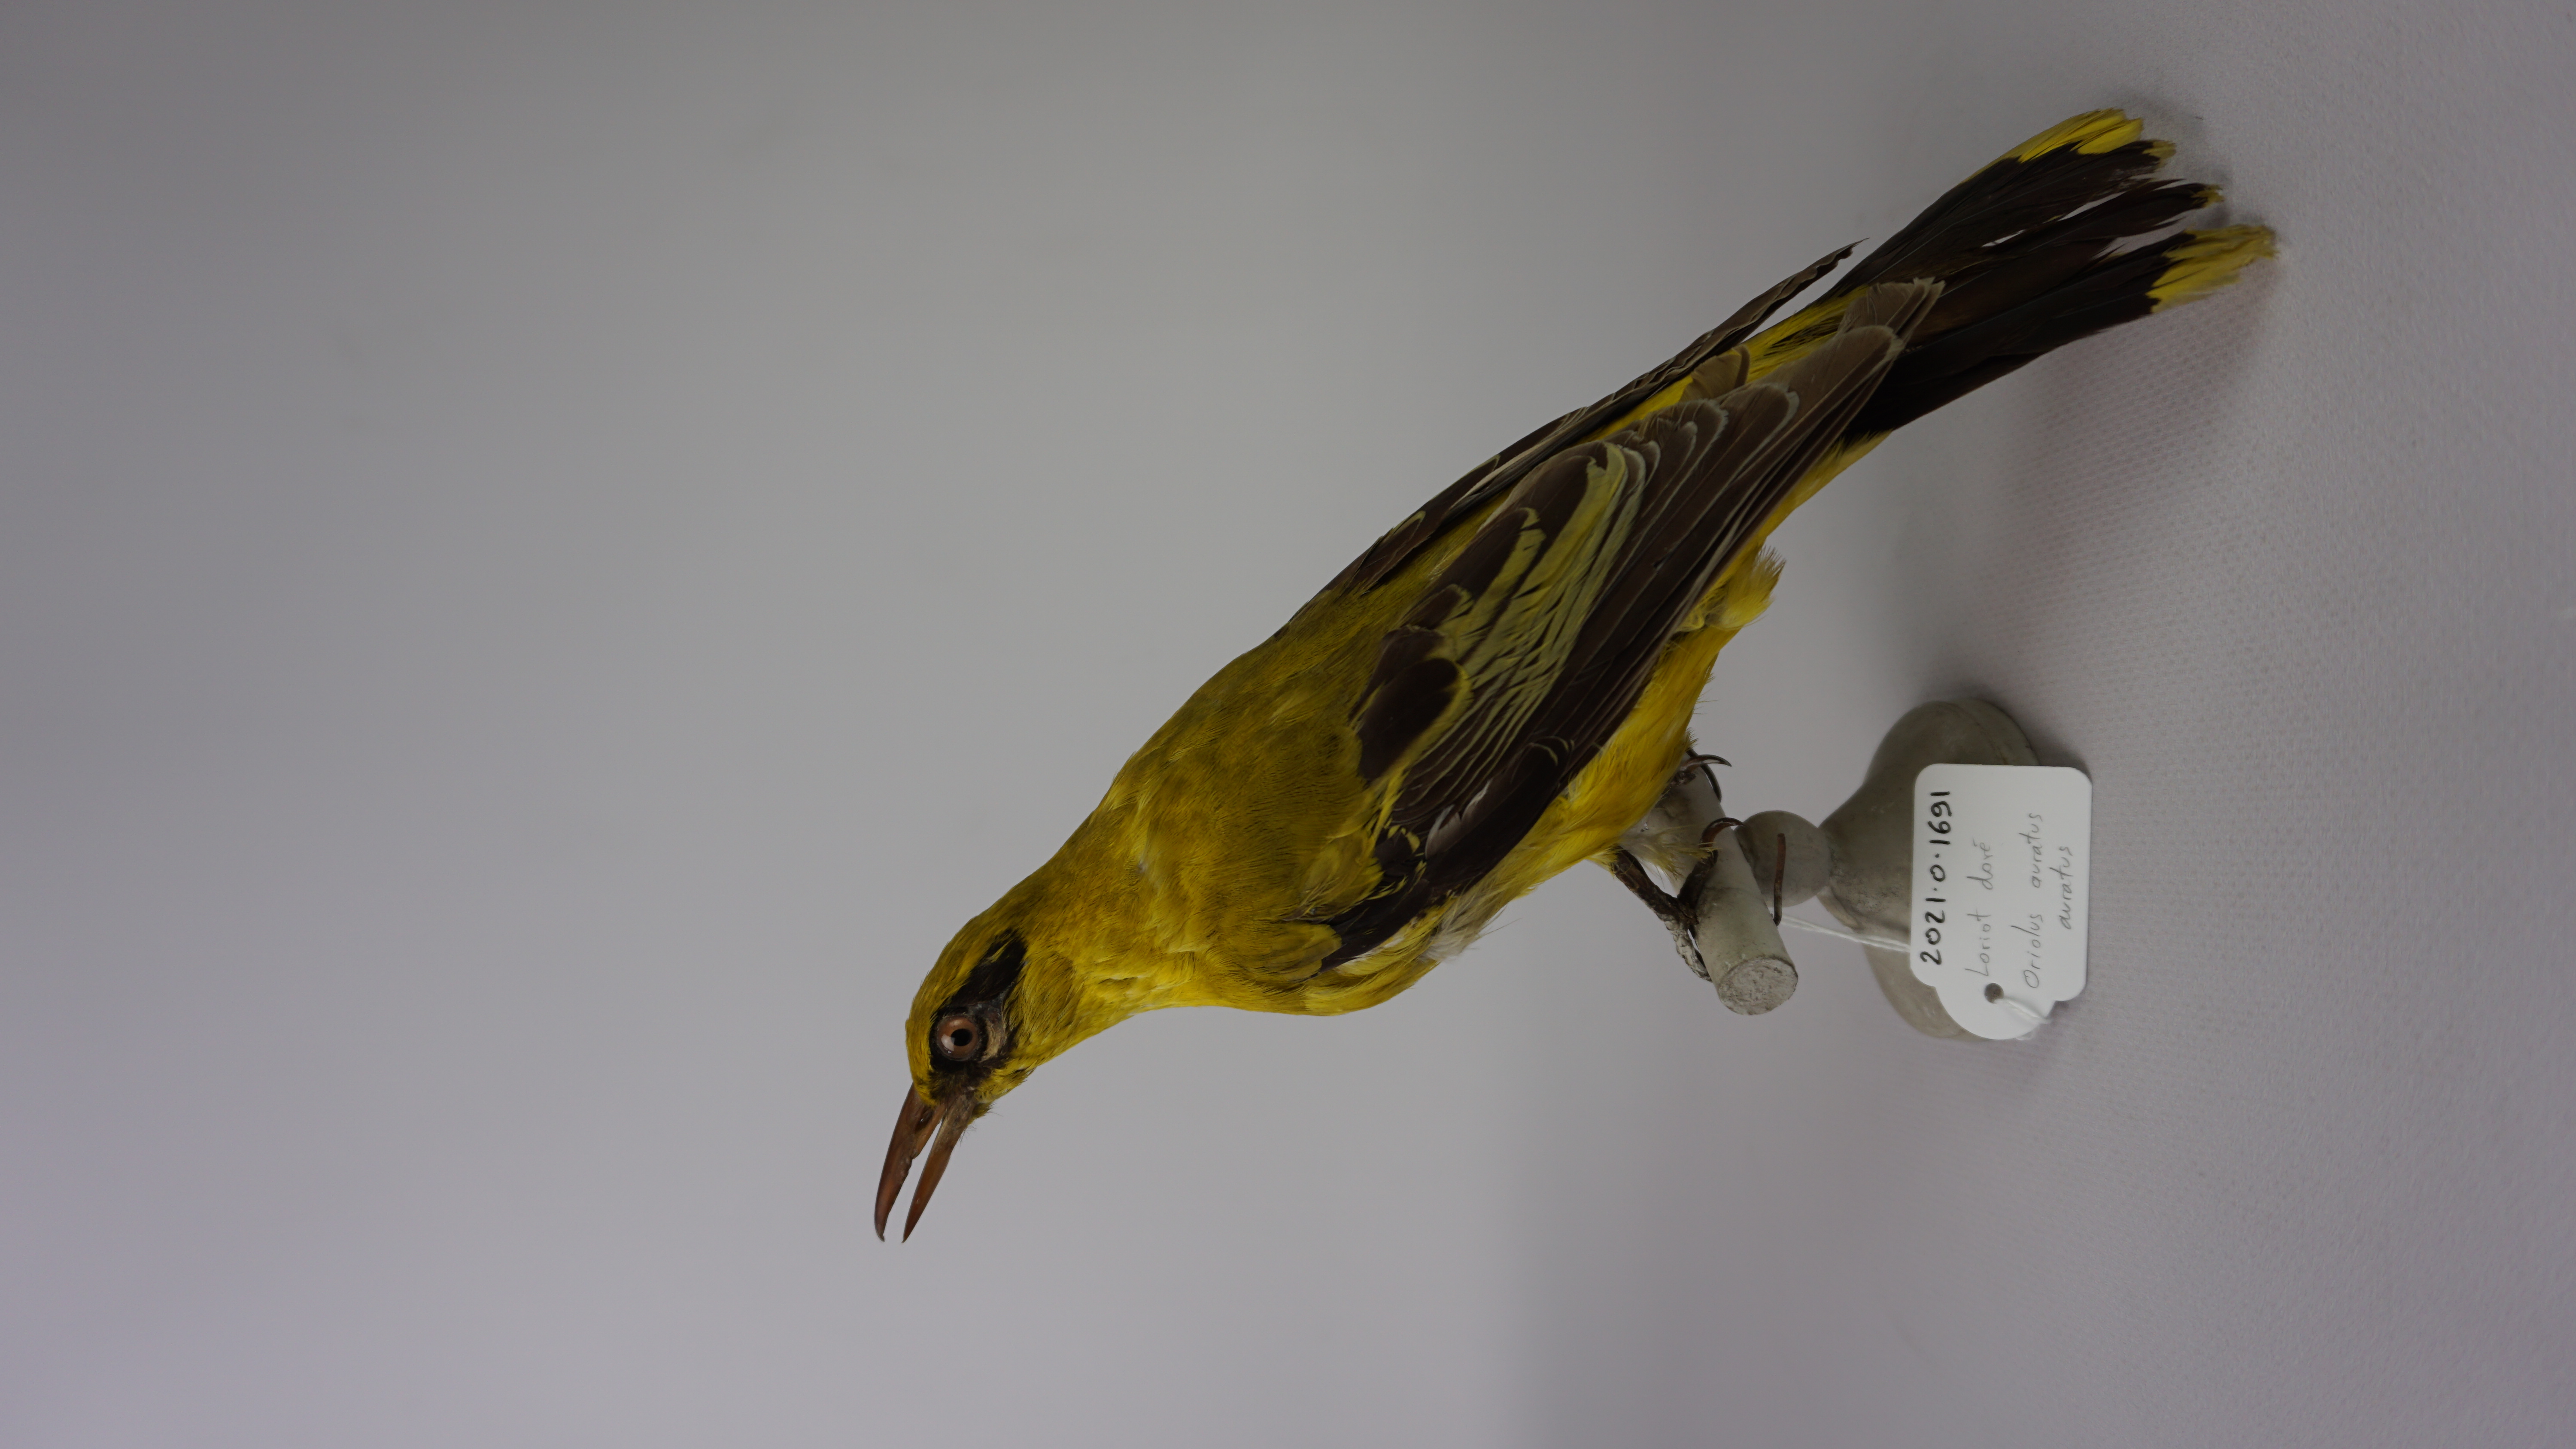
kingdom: Animalia
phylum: Chordata
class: Aves
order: Passeriformes
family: Oriolidae
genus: Oriolus
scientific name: Oriolus auratus
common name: African golden oriole
